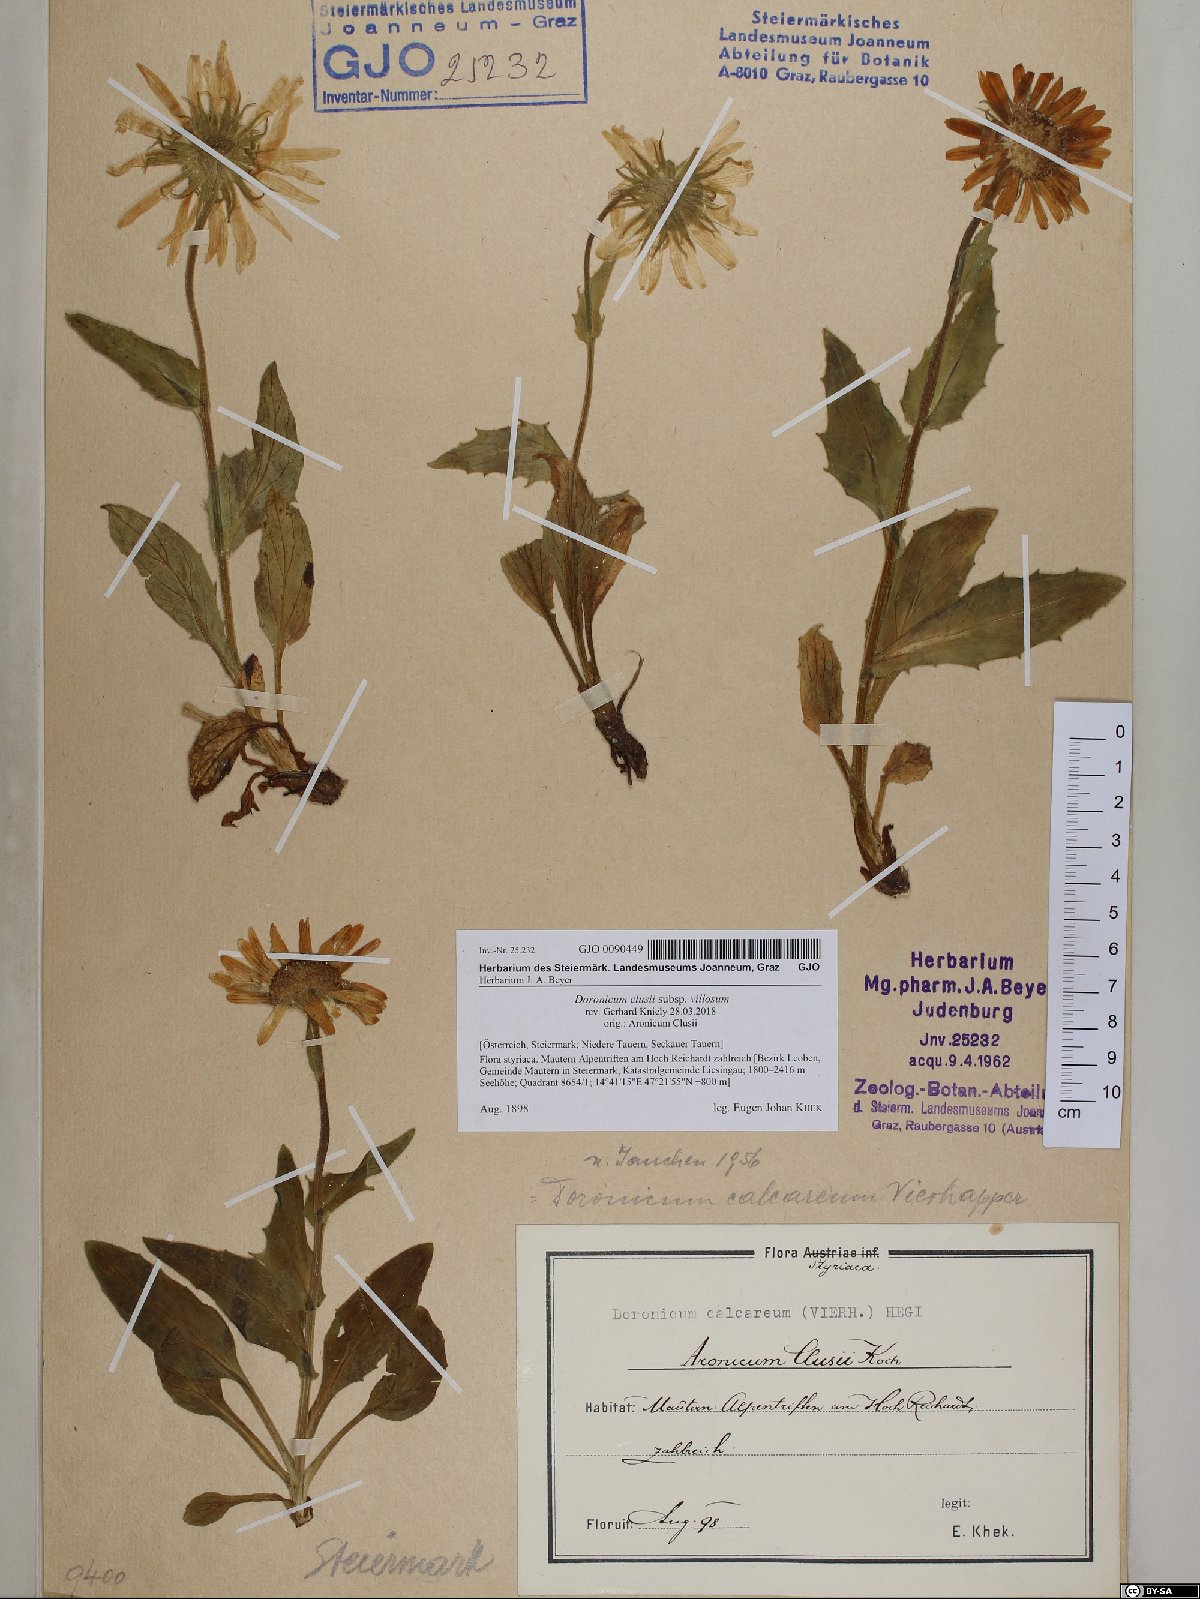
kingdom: Plantae
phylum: Tracheophyta
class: Magnoliopsida
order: Asterales
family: Asteraceae
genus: Doronicum
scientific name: Doronicum clusii
